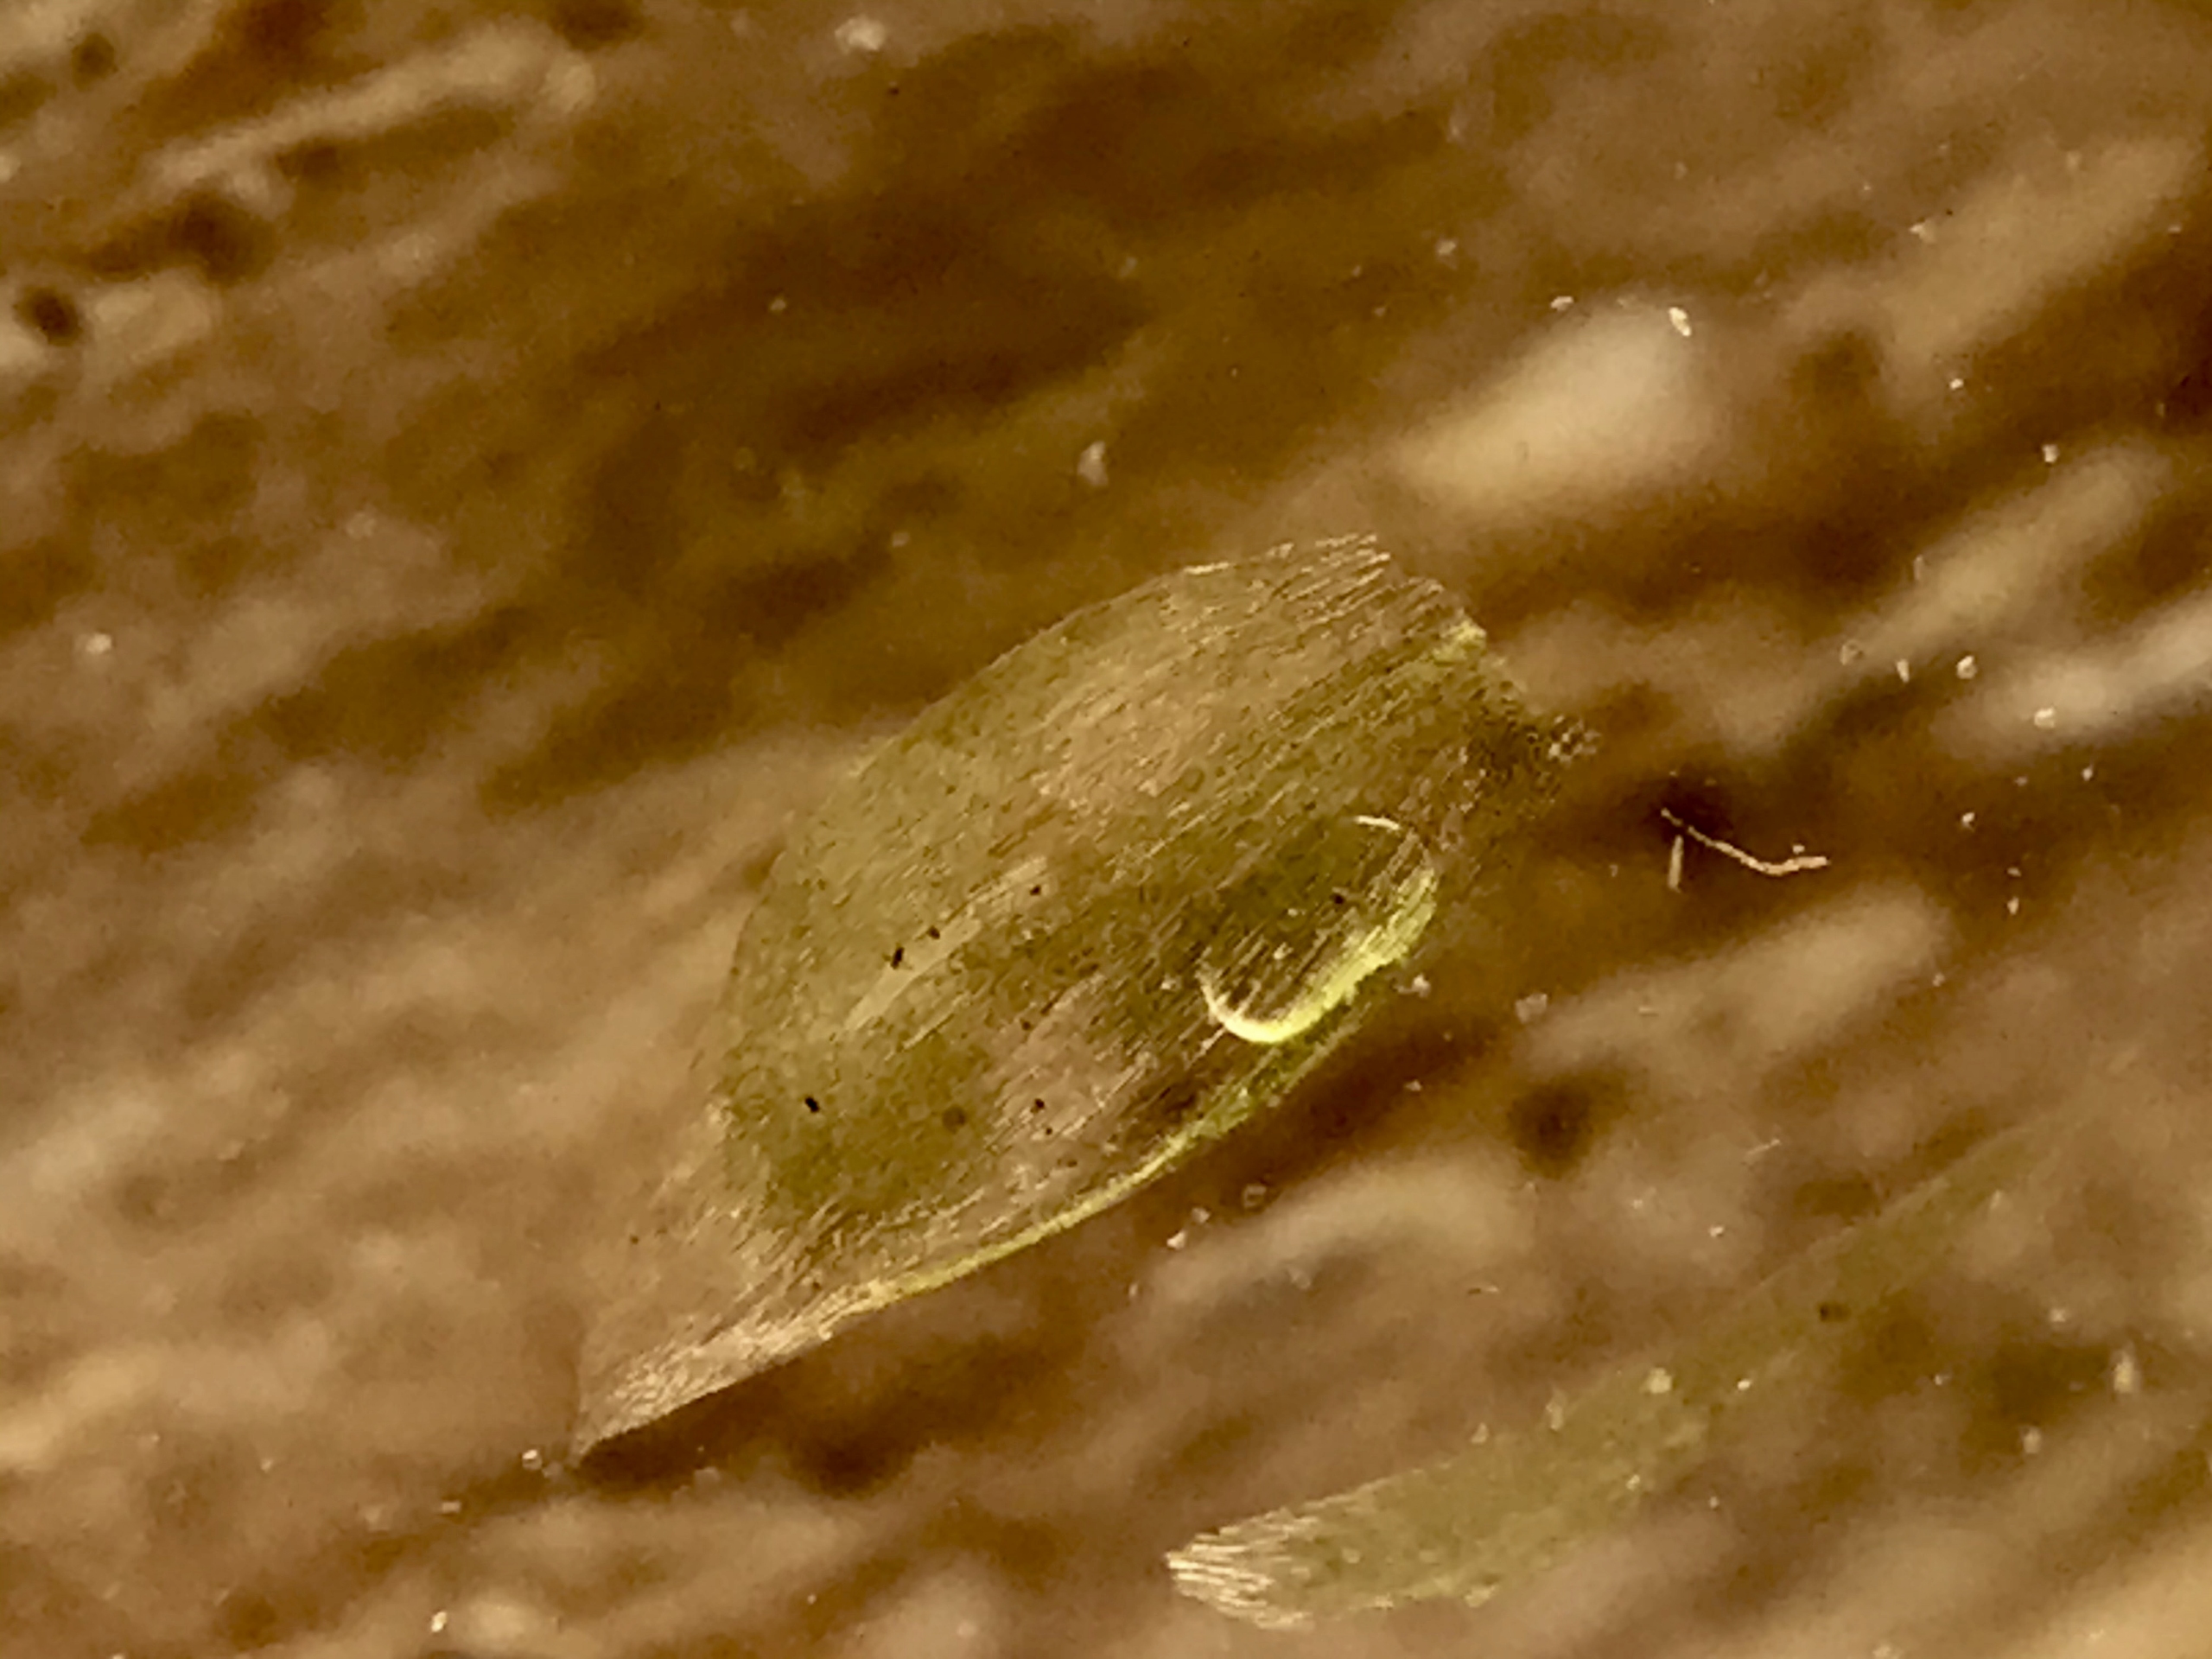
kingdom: Plantae
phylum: Bryophyta
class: Bryopsida
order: Hypnales
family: Plagiotheciaceae
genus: Plagiothecium
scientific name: Plagiothecium
